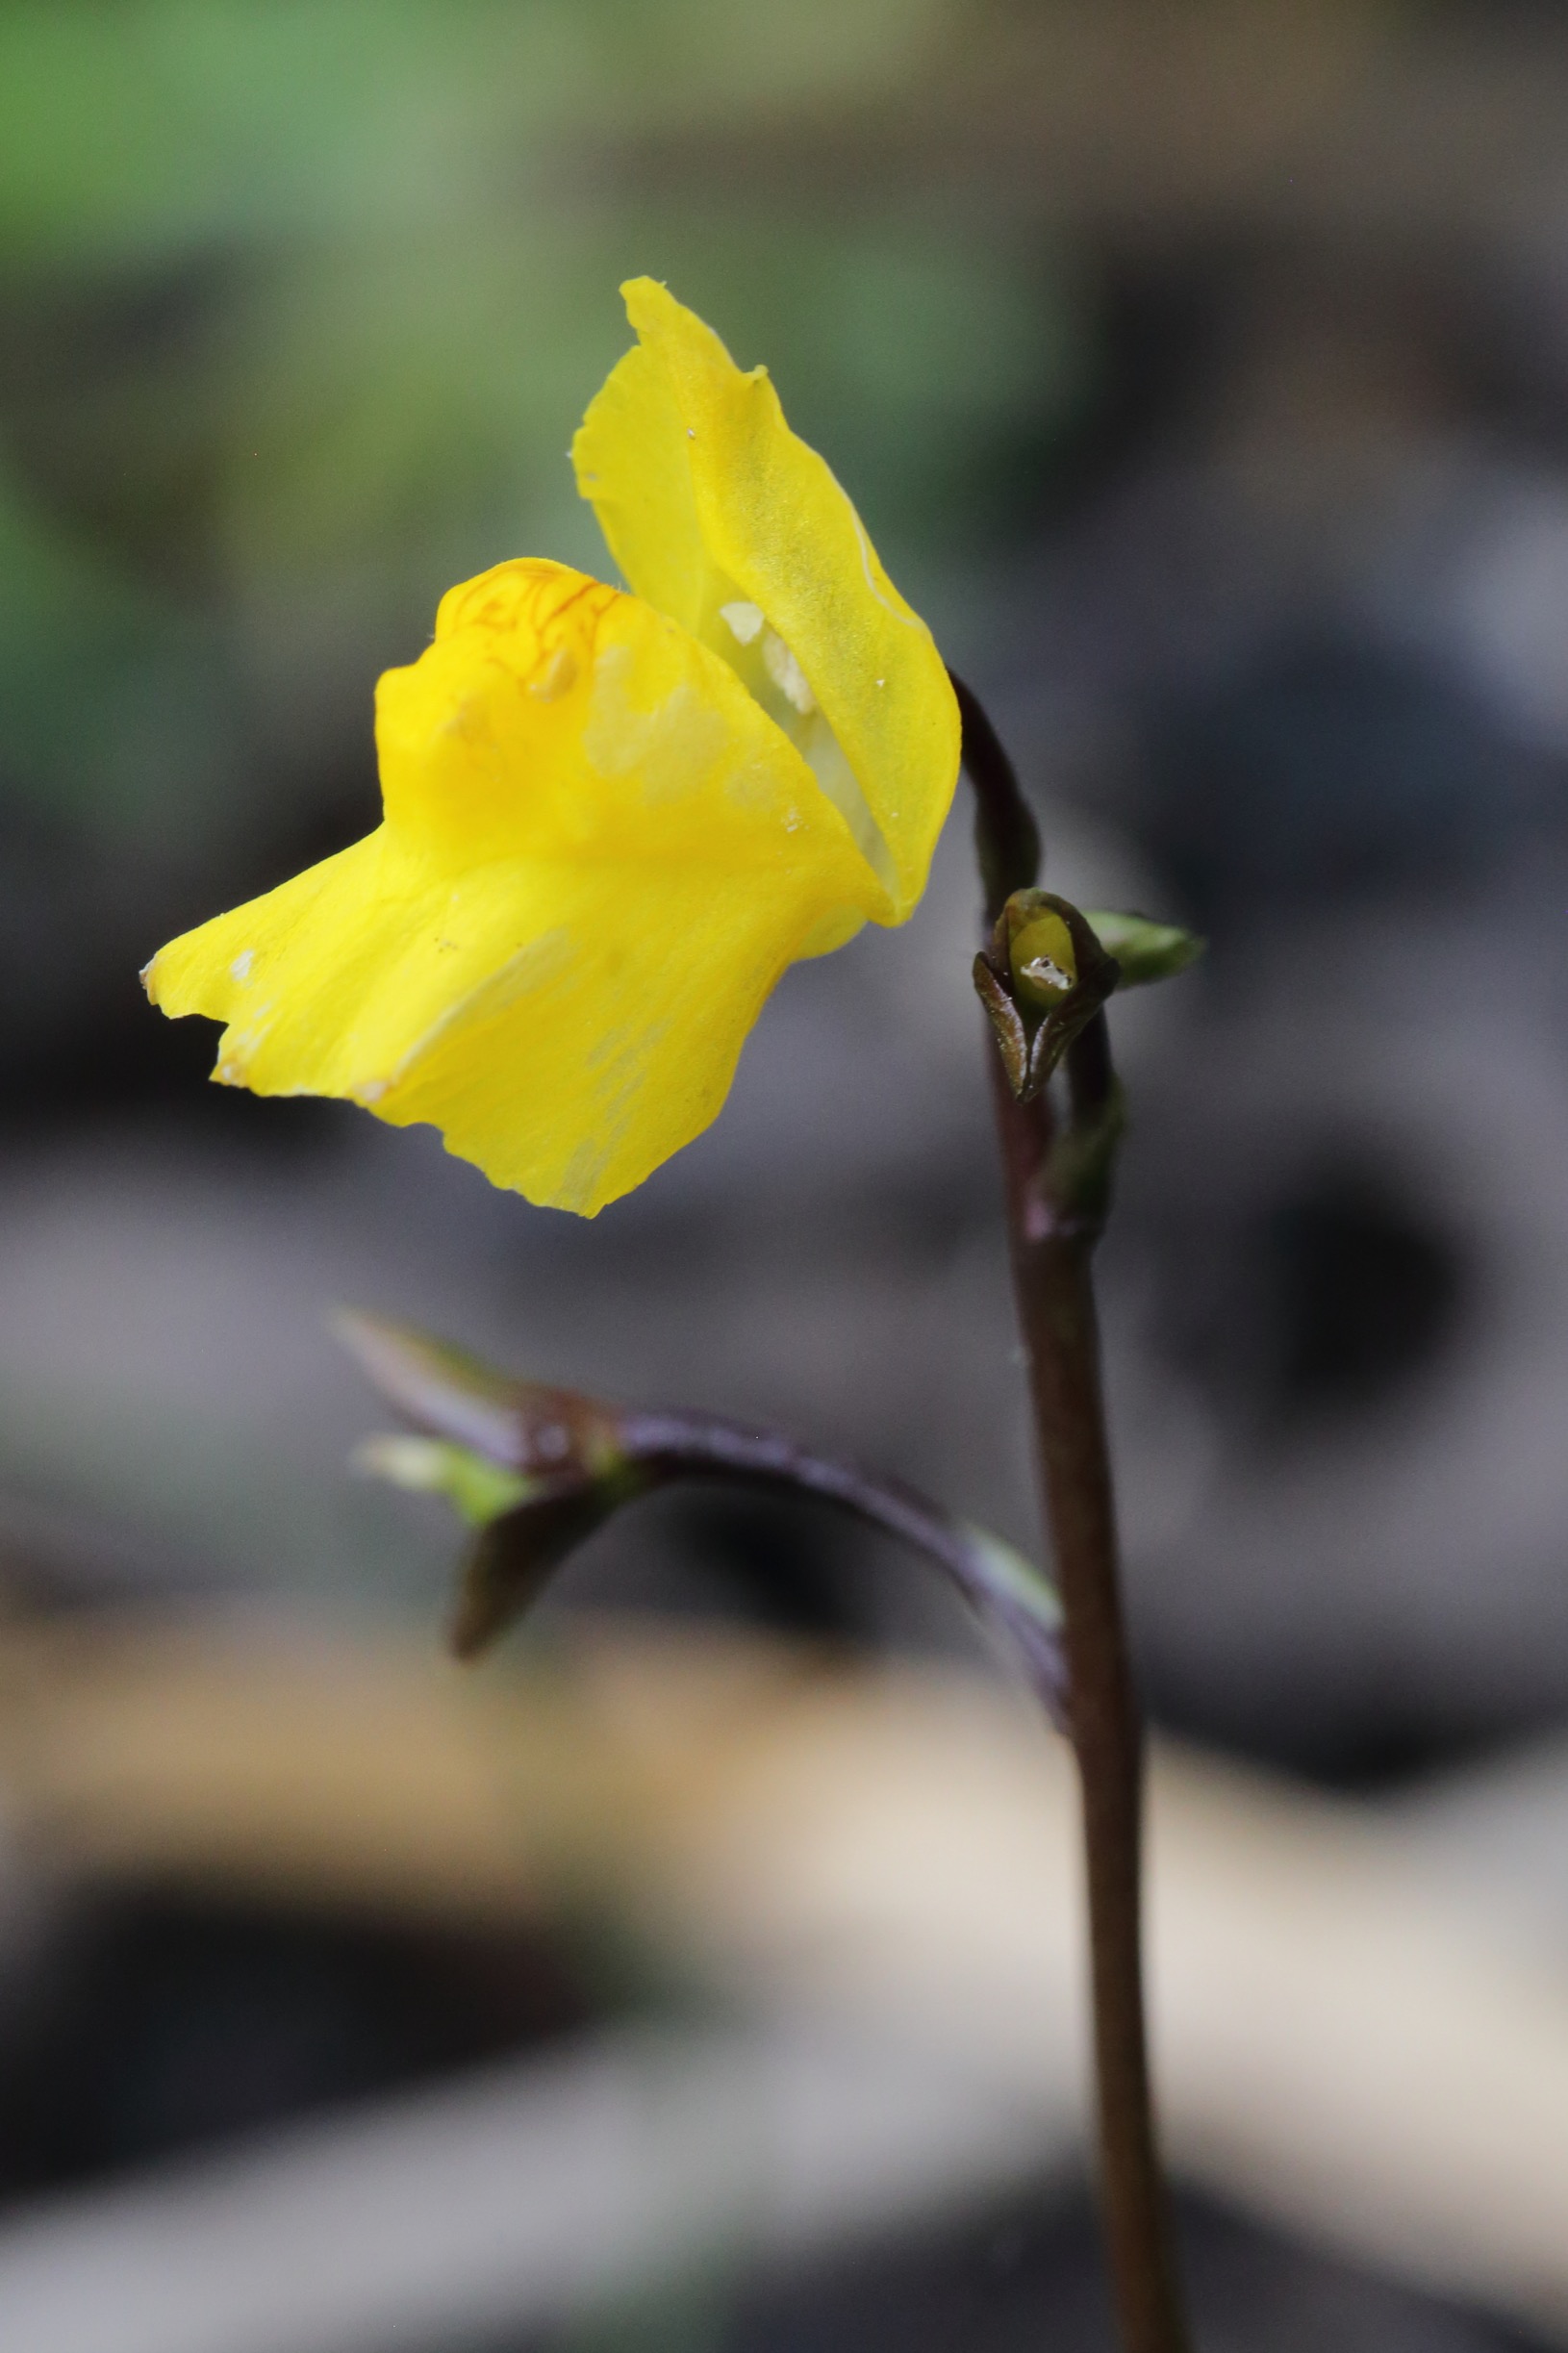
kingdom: Plantae
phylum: Tracheophyta
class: Magnoliopsida
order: Lamiales
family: Lentibulariaceae
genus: Utricularia
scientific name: Utricularia vulgaris
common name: Almindelig blærerod
